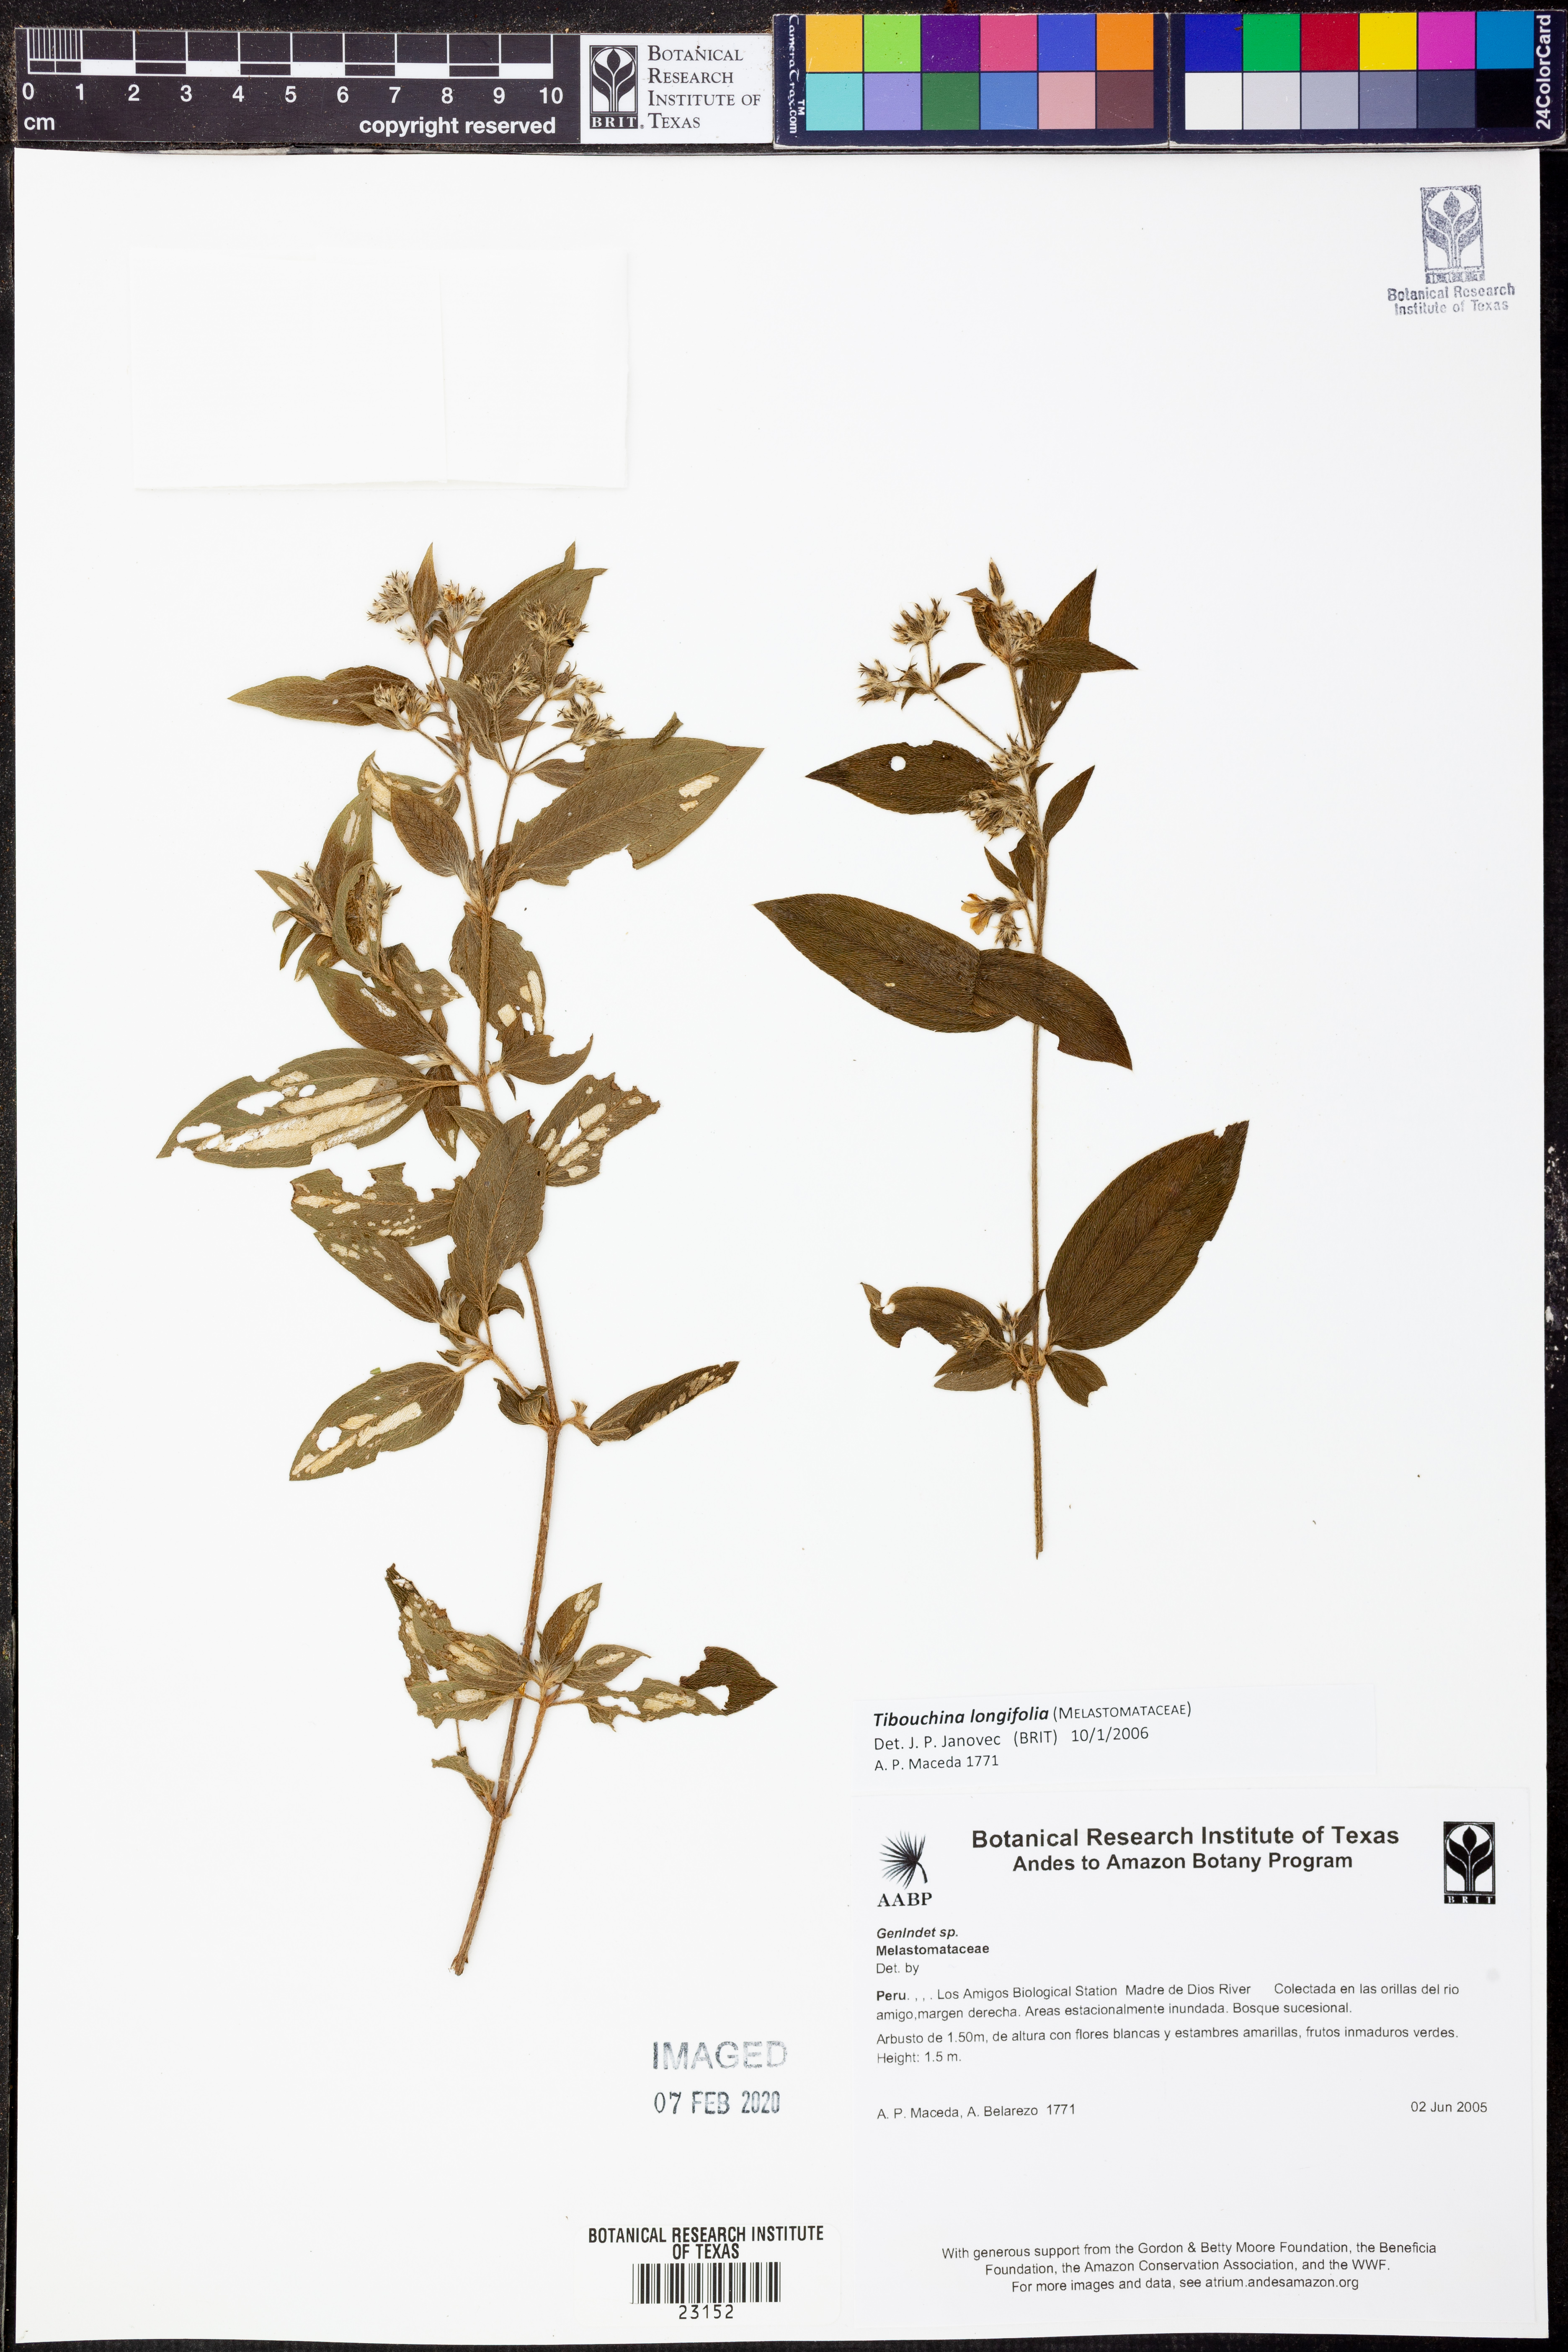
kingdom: Plantae
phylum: Tracheophyta
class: Magnoliopsida
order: Myrtales
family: Melastomataceae
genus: Chaetogastra
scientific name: Chaetogastra longifolia
